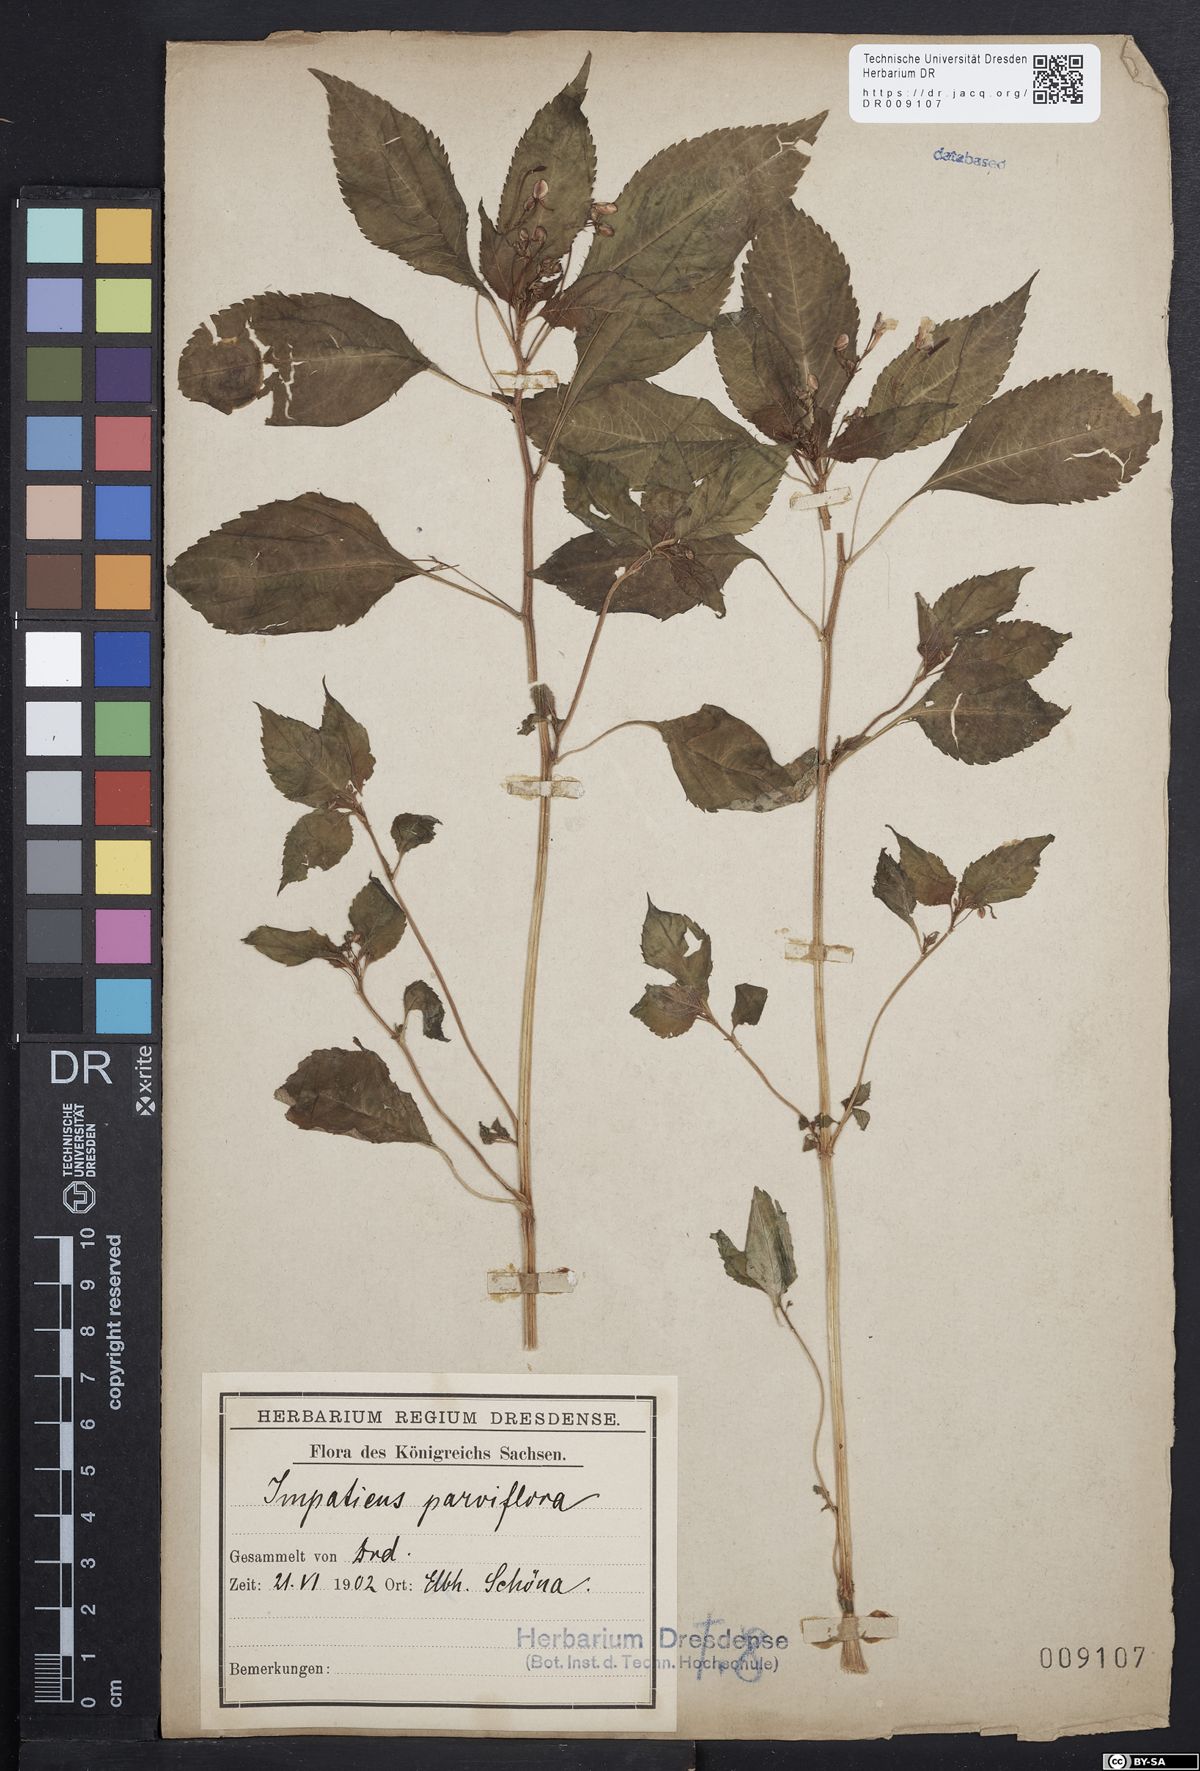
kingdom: Plantae
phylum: Tracheophyta
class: Magnoliopsida
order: Ericales
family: Balsaminaceae
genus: Impatiens
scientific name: Impatiens parviflora
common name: Small balsam
